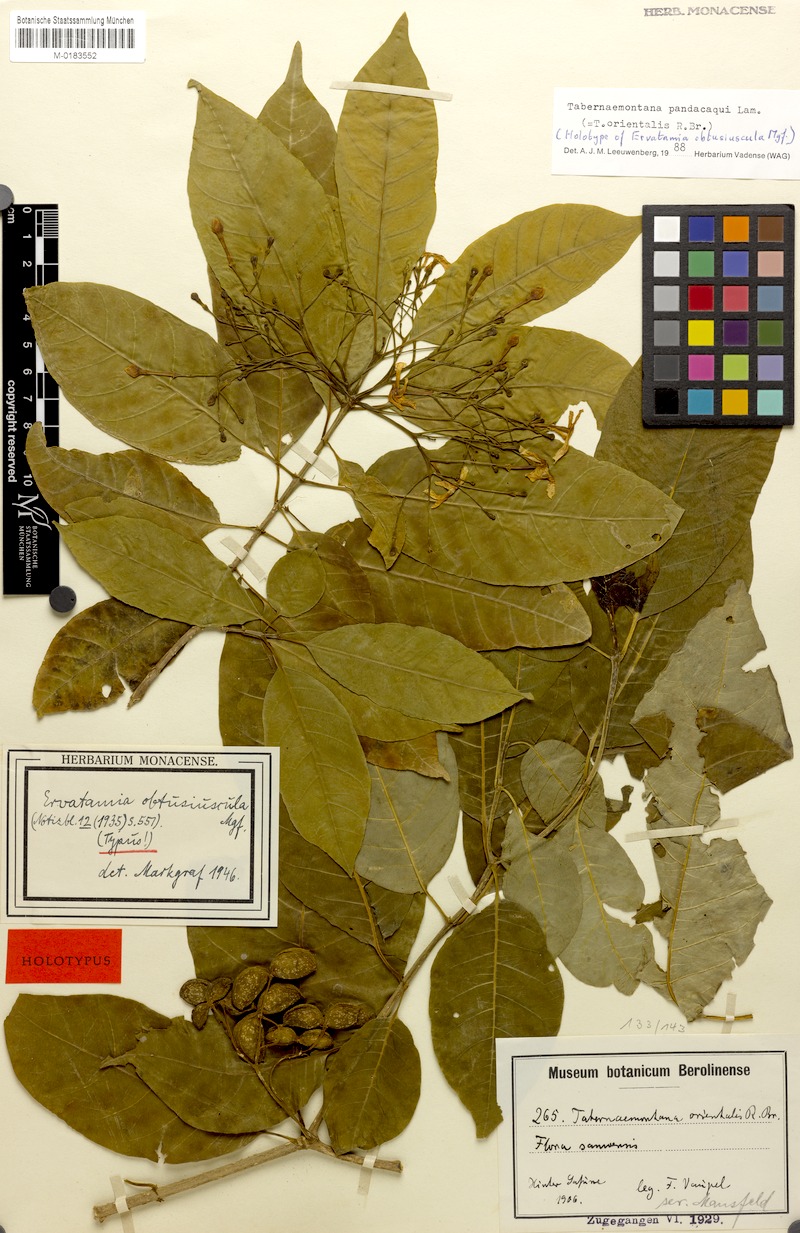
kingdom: Plantae
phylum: Tracheophyta
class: Magnoliopsida
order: Gentianales
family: Apocynaceae
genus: Tabernaemontana
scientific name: Tabernaemontana pandacaqui
